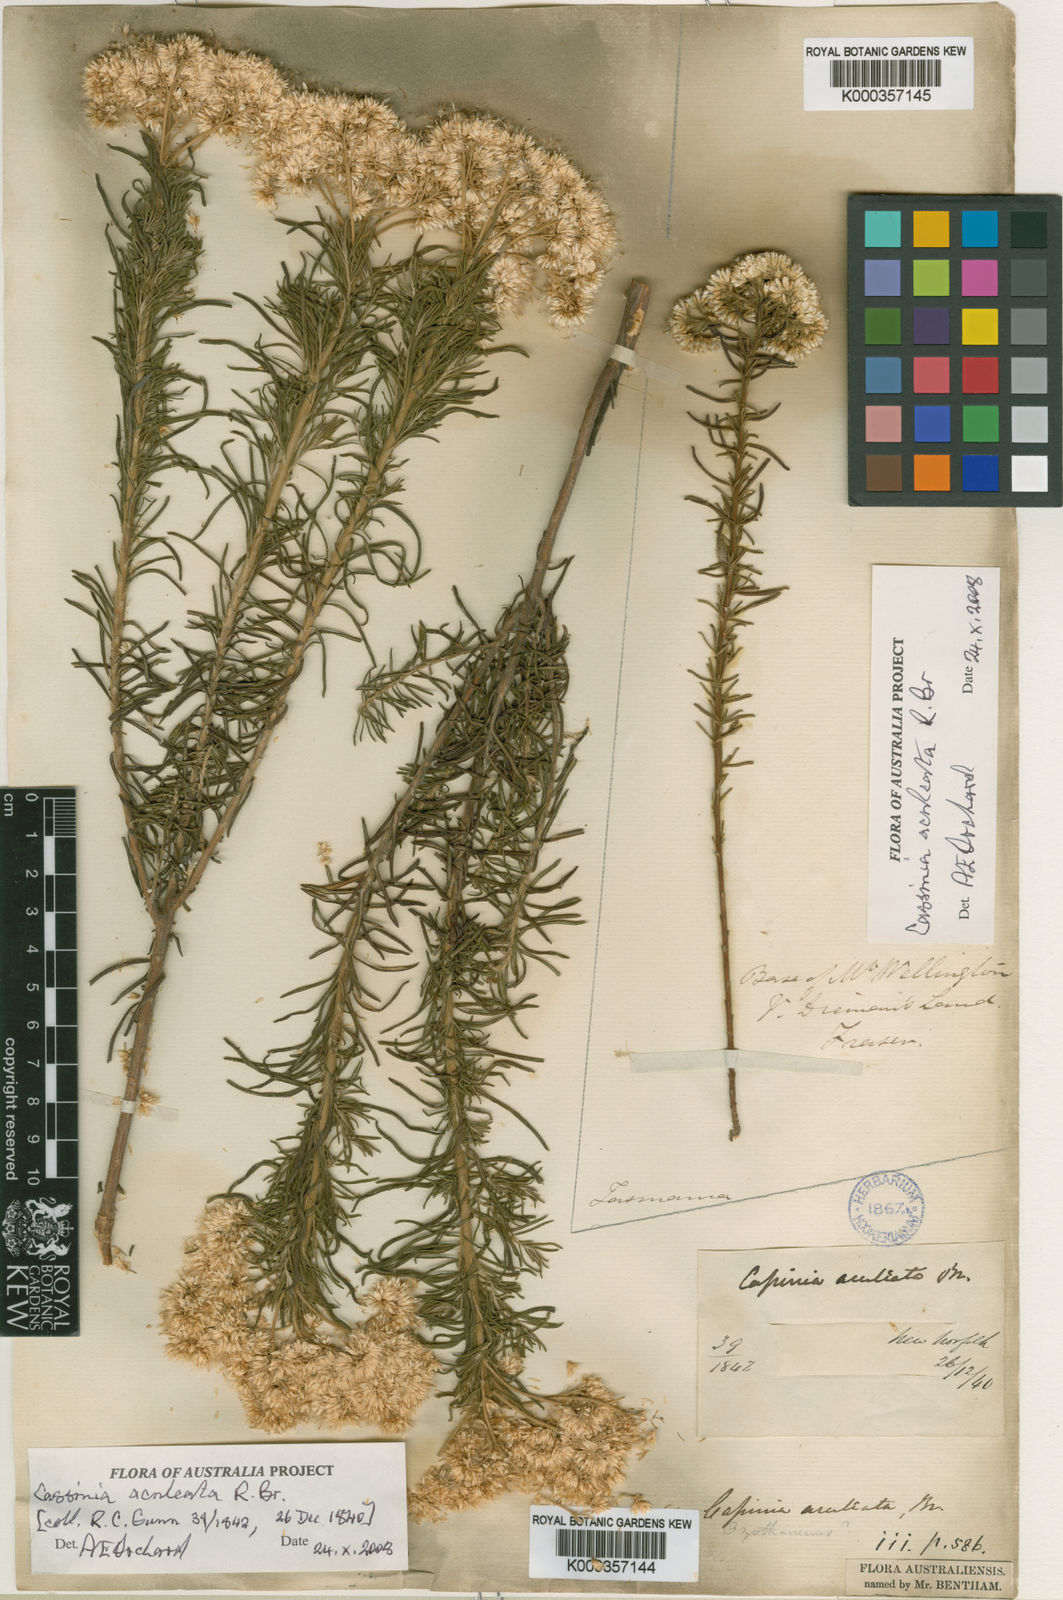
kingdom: Plantae
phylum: Tracheophyta
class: Magnoliopsida
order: Asterales
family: Asteraceae
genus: Cassinia
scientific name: Cassinia aculeata
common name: Australian tauhinu
